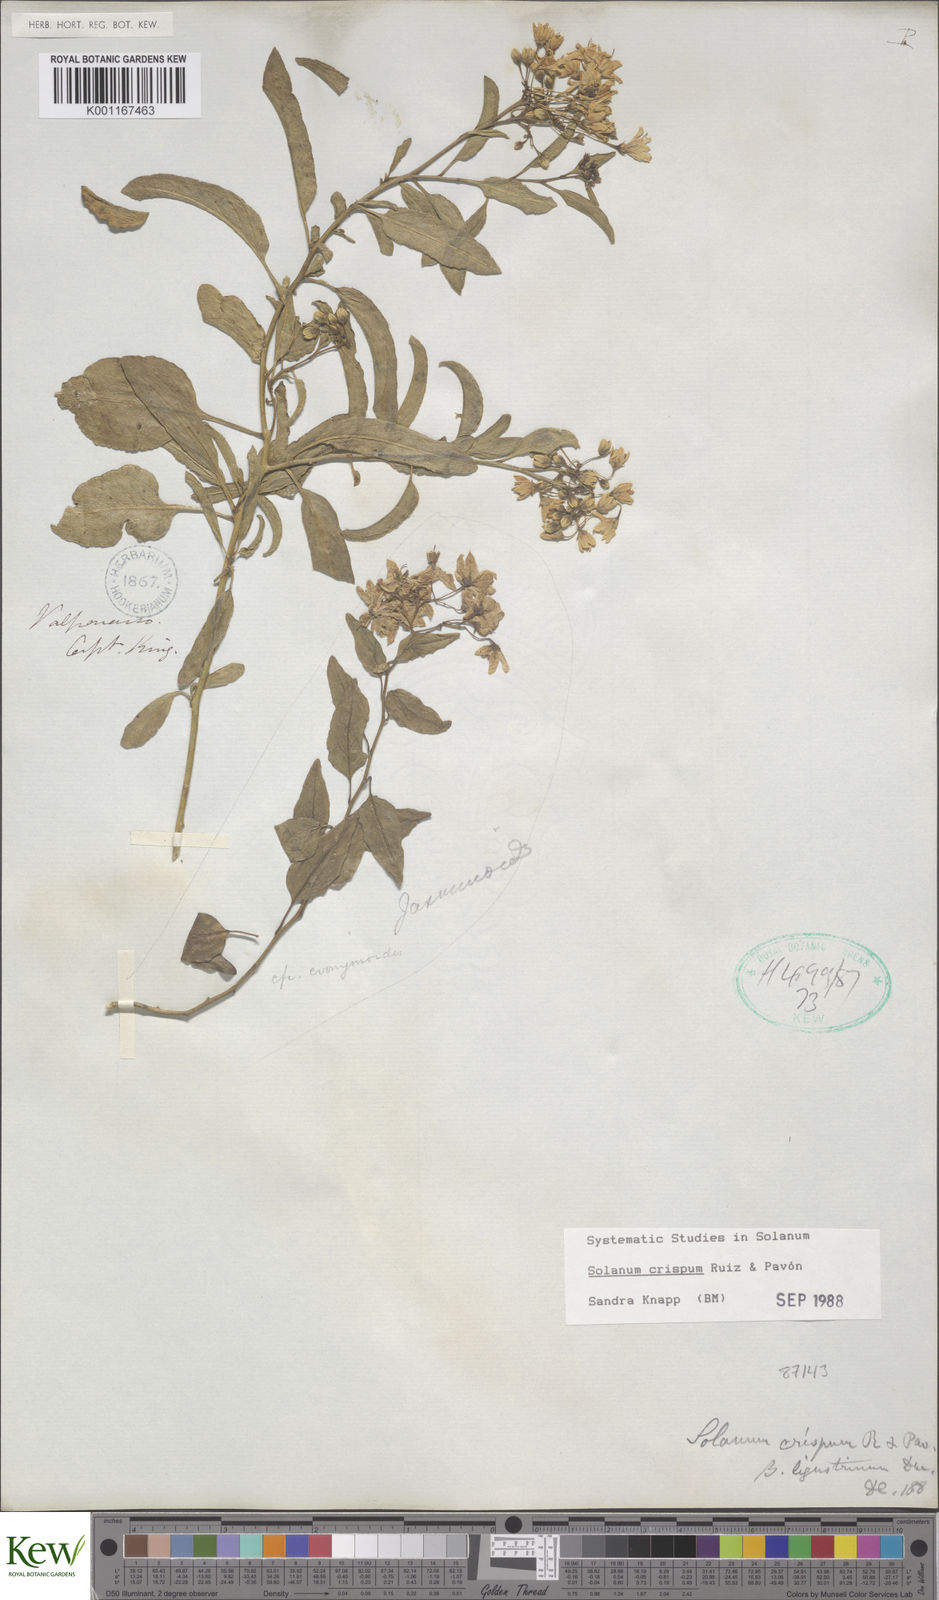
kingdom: Plantae
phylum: Tracheophyta
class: Magnoliopsida
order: Solanales
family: Solanaceae
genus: Solanum
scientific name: Solanum crispum
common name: Chilean nightshade
